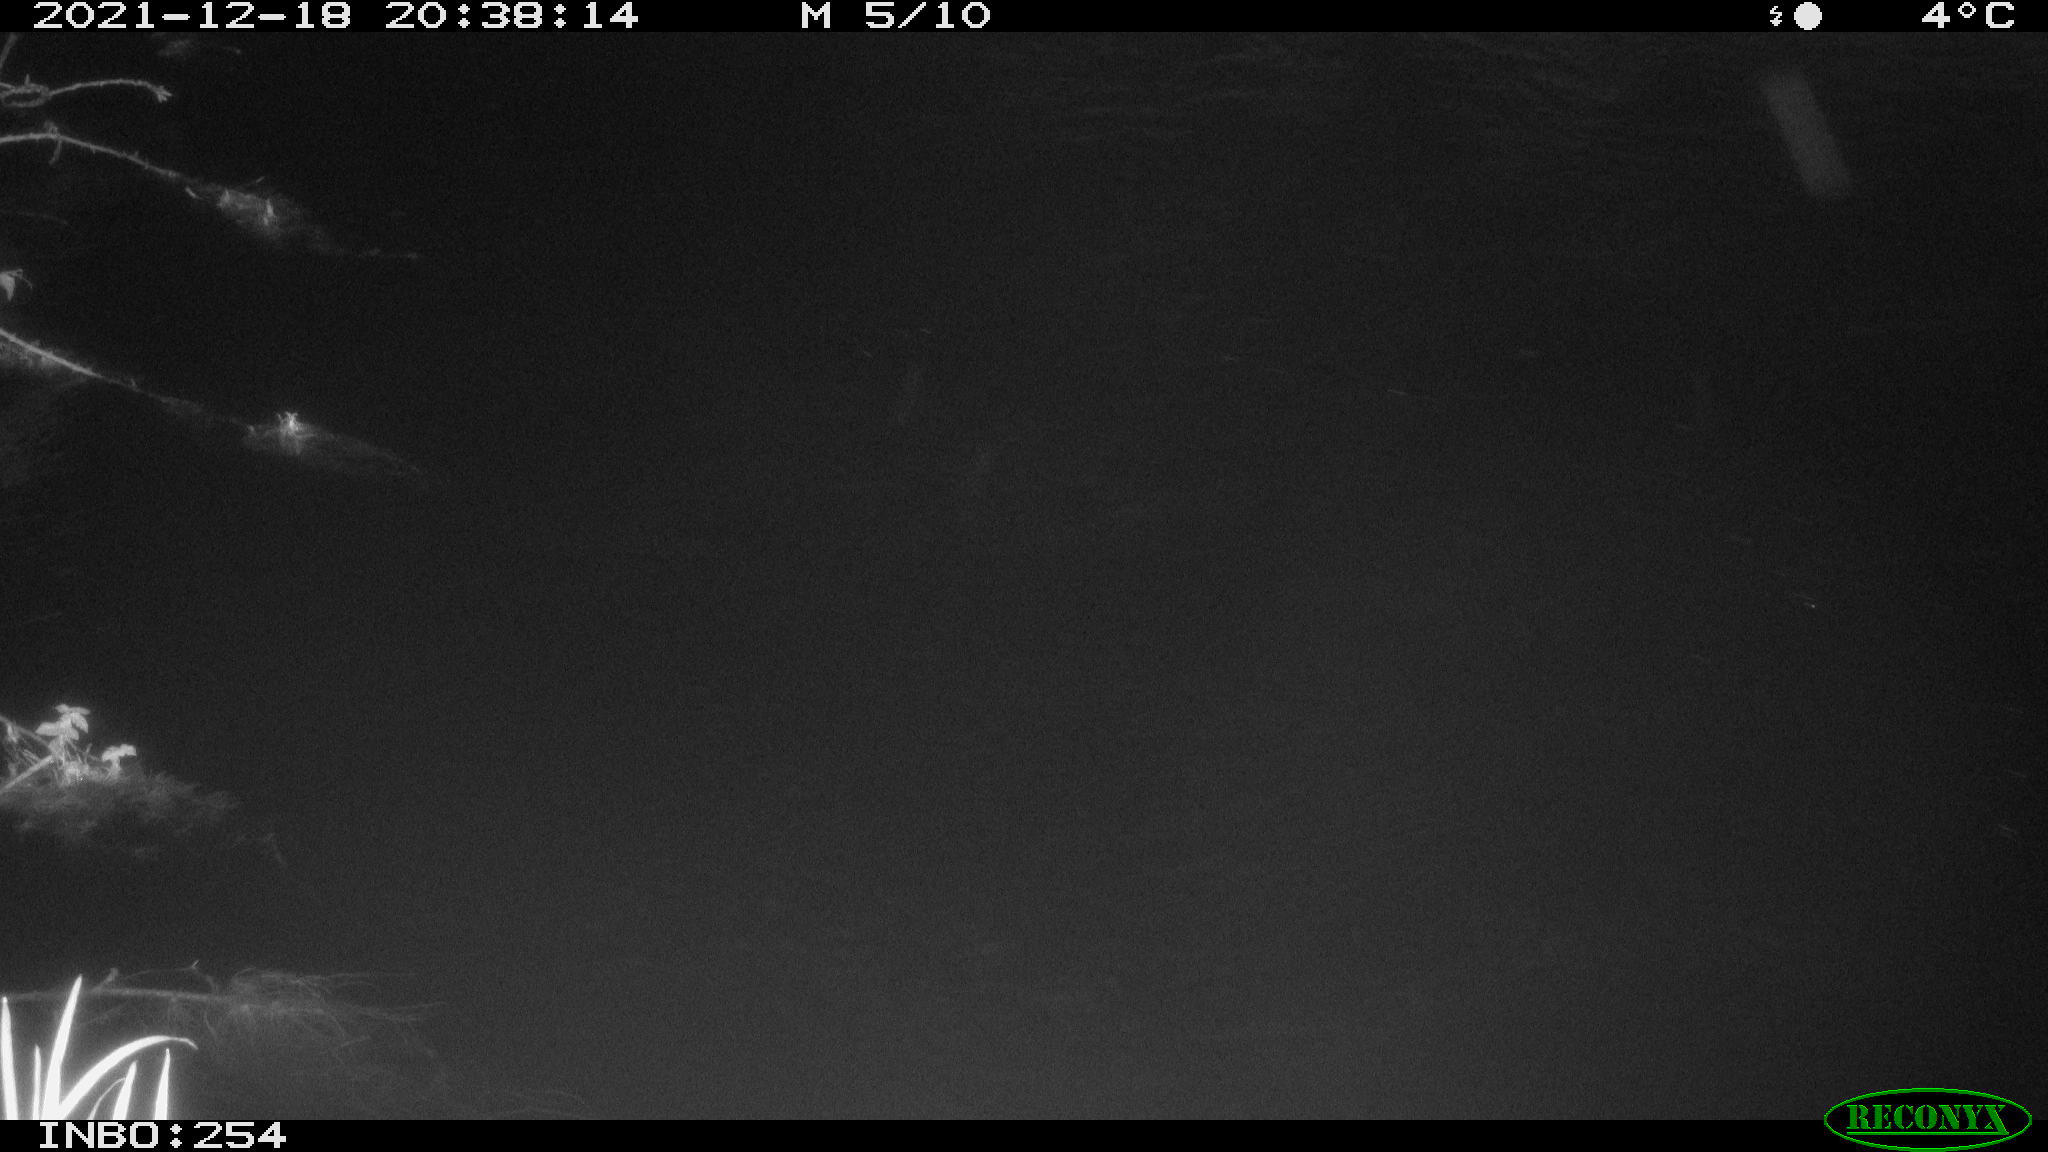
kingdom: Animalia
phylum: Chordata
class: Mammalia
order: Rodentia
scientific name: Rodentia
